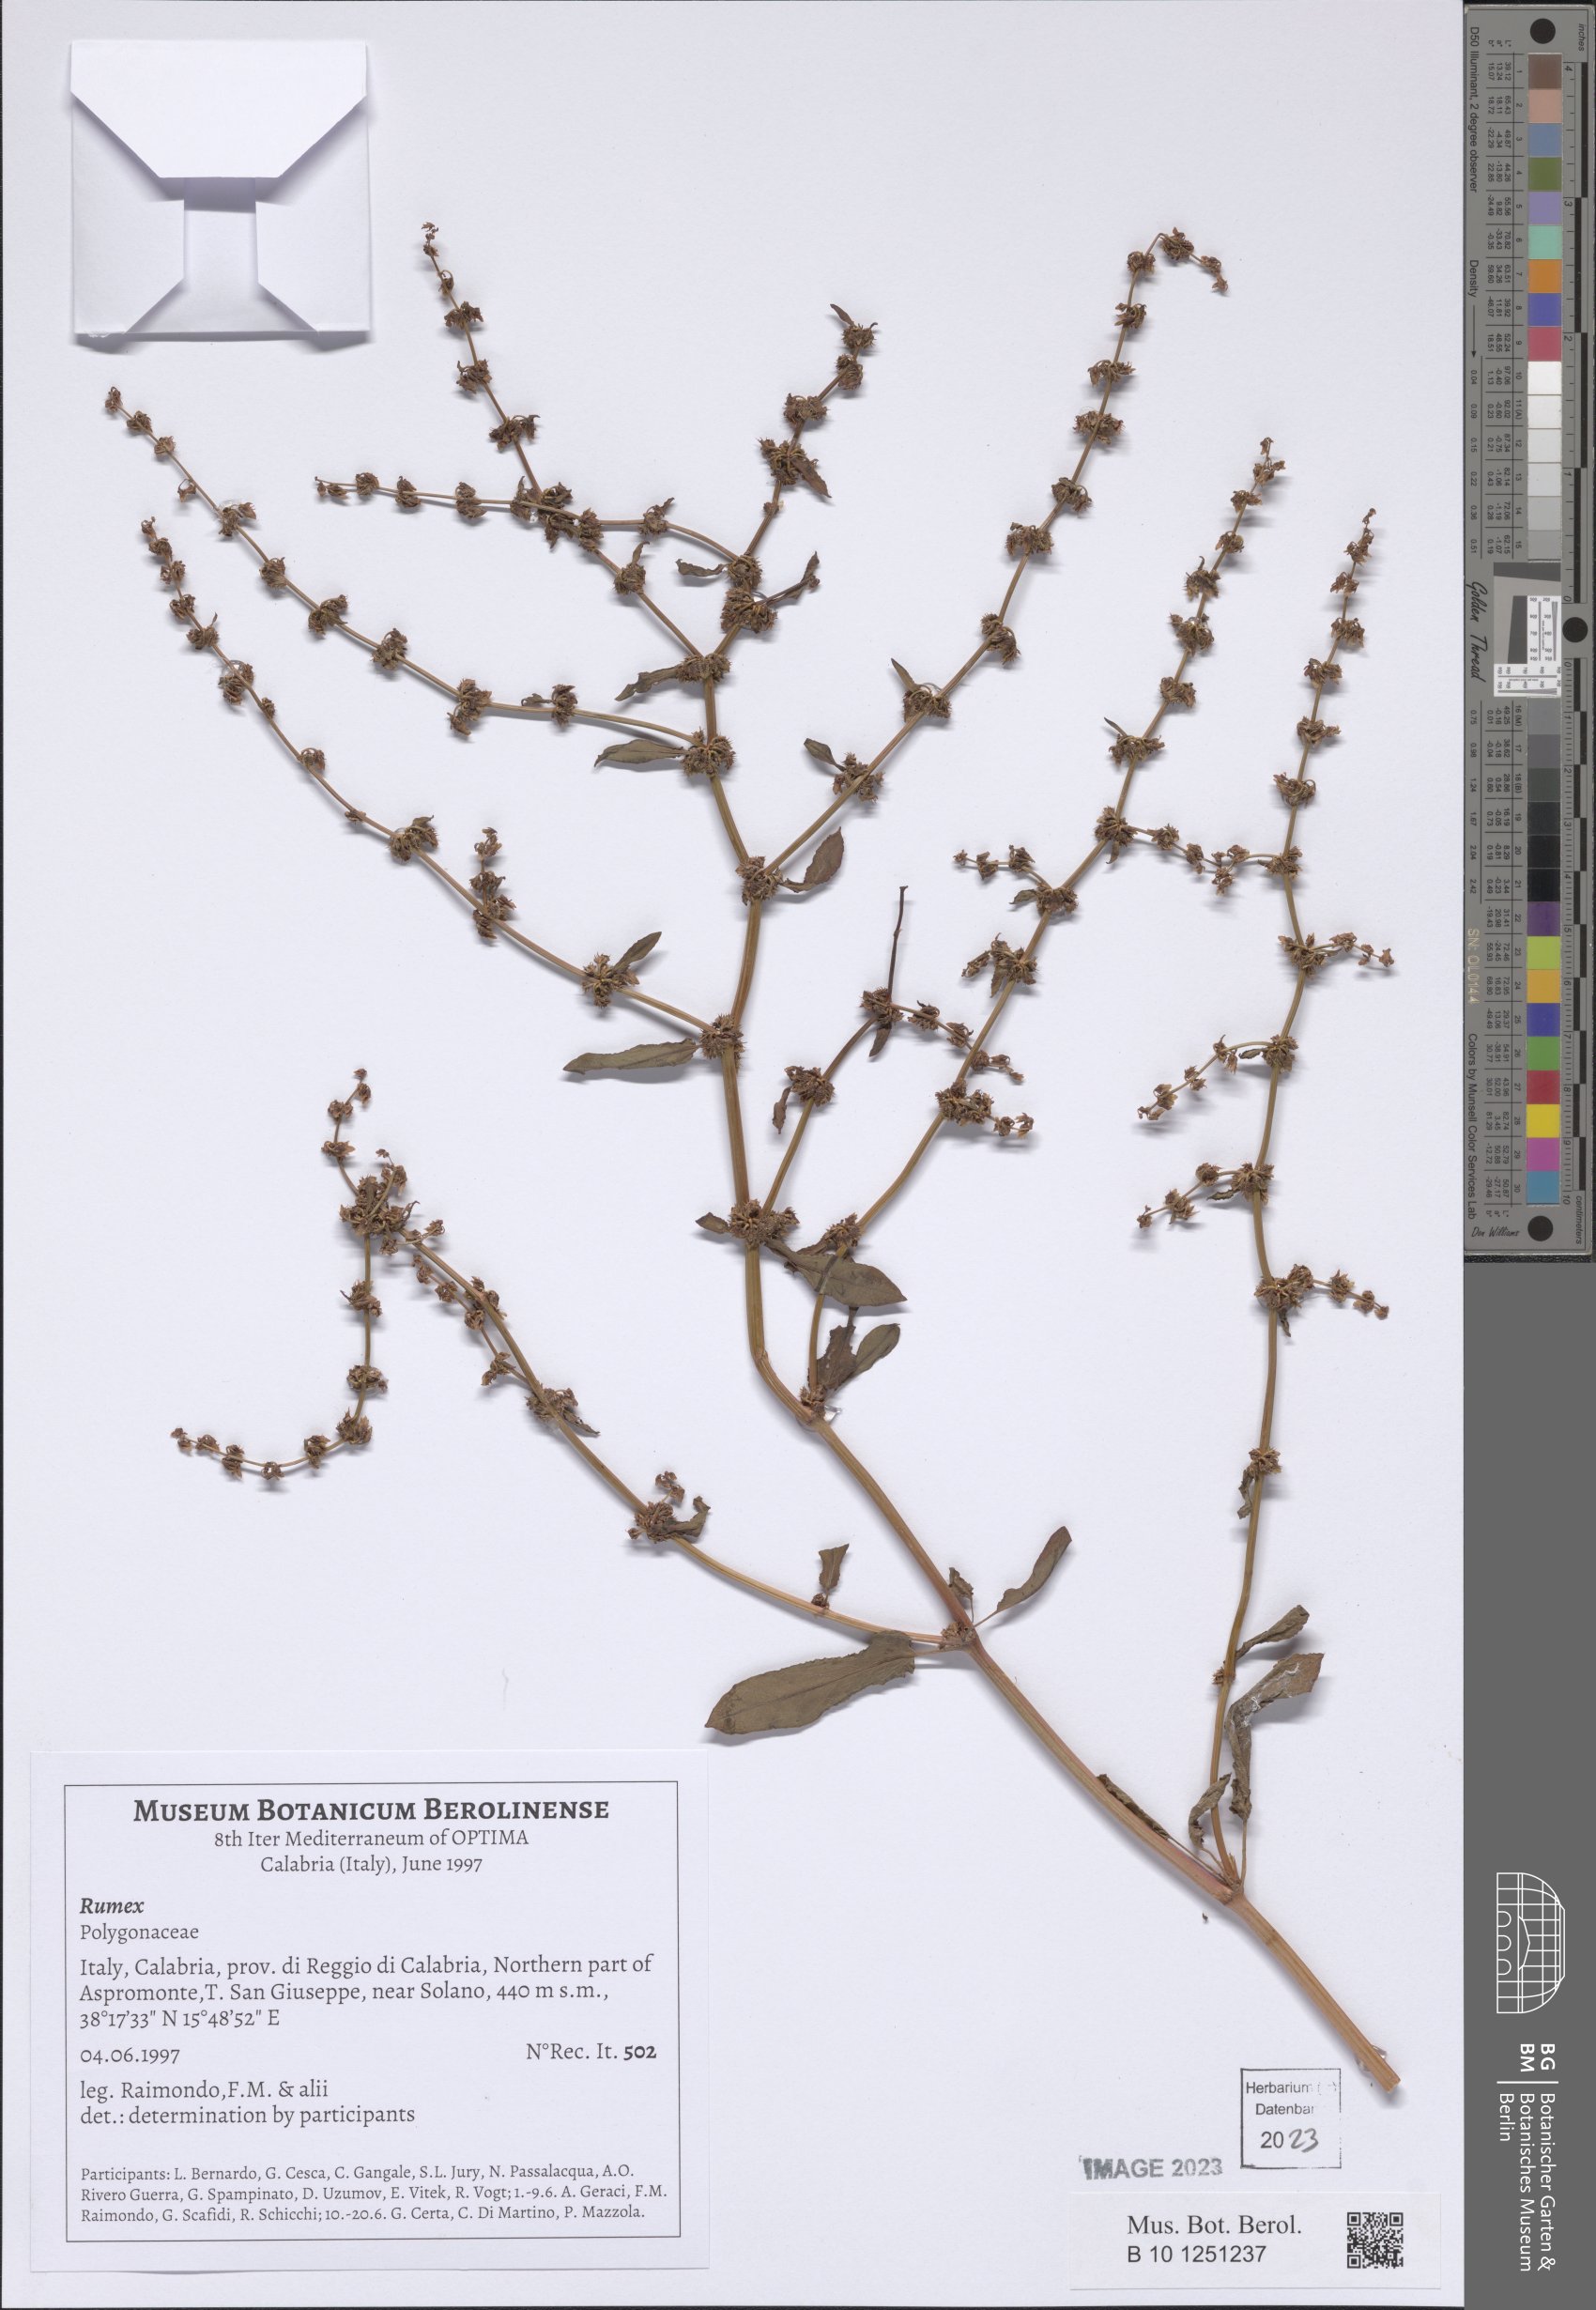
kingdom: Plantae
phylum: Tracheophyta
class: Magnoliopsida
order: Caryophyllales
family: Polygonaceae
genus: Rumex
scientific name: Rumex
